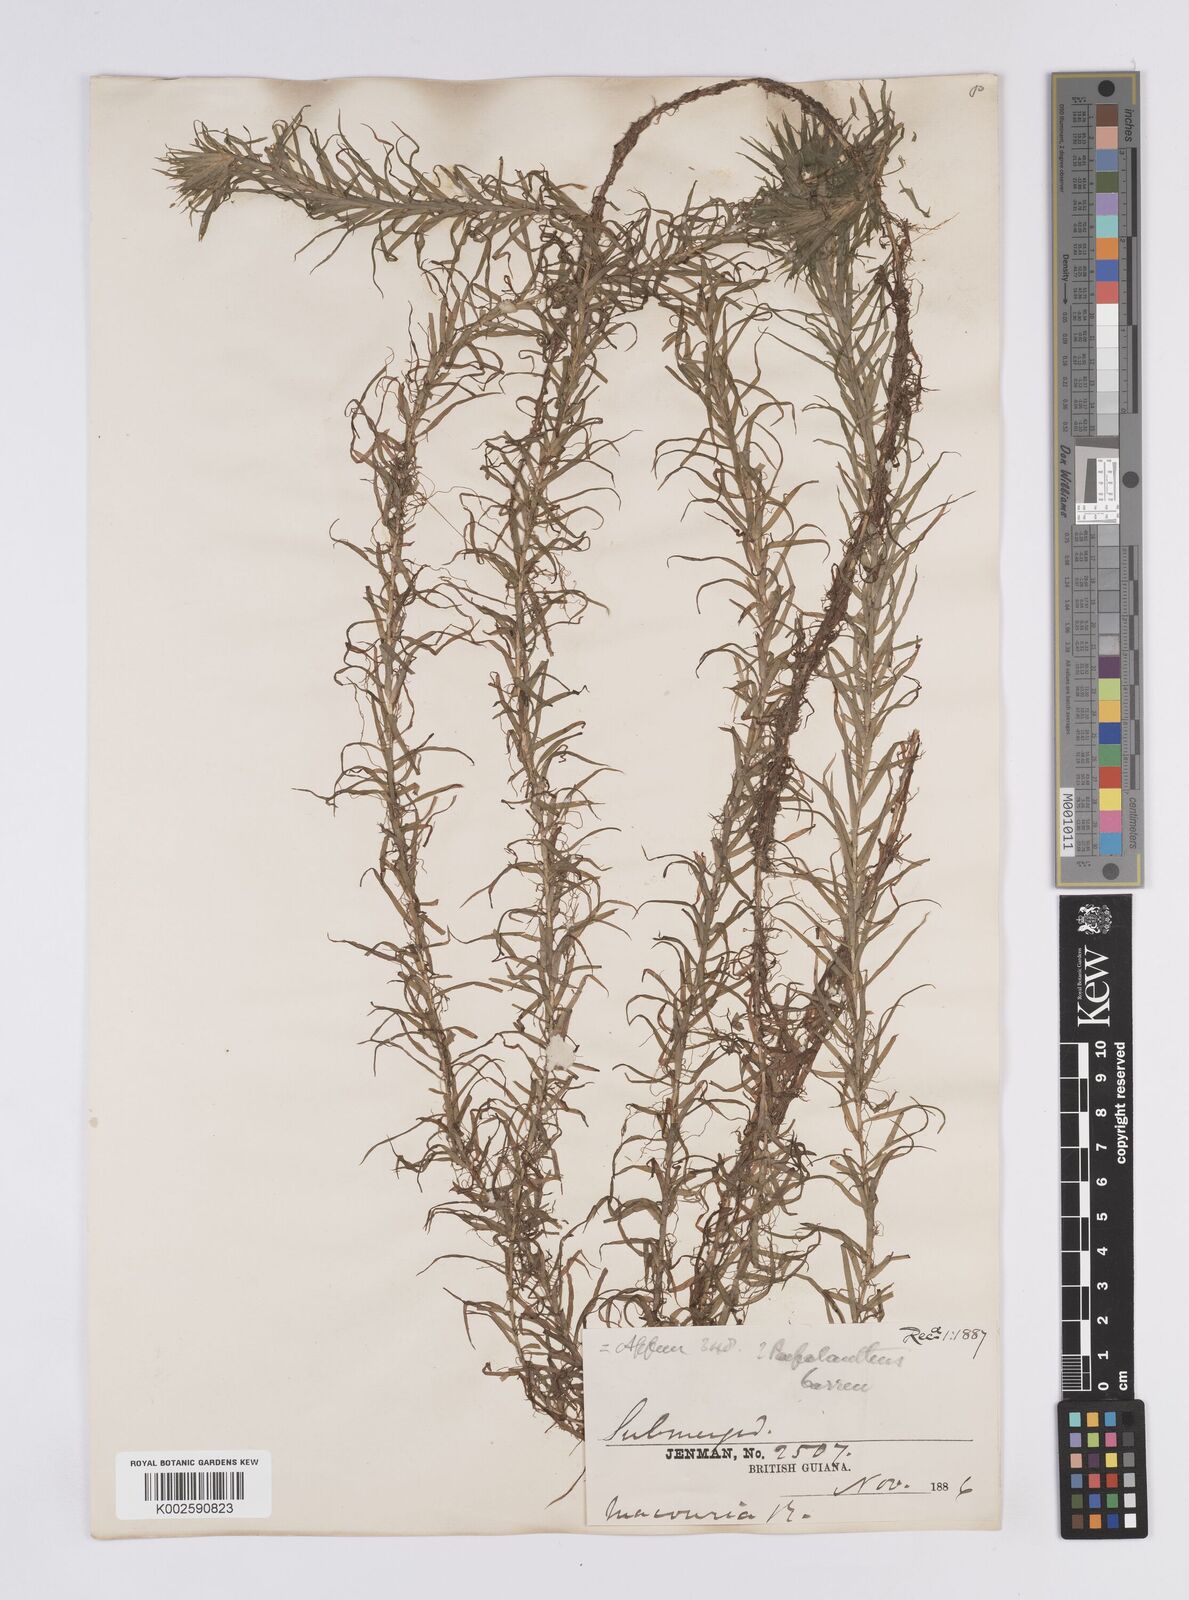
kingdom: Plantae
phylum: Tracheophyta
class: Liliopsida
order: Poales
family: Eriocaulaceae
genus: Paepalanthus
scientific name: Paepalanthus fluviatilis
